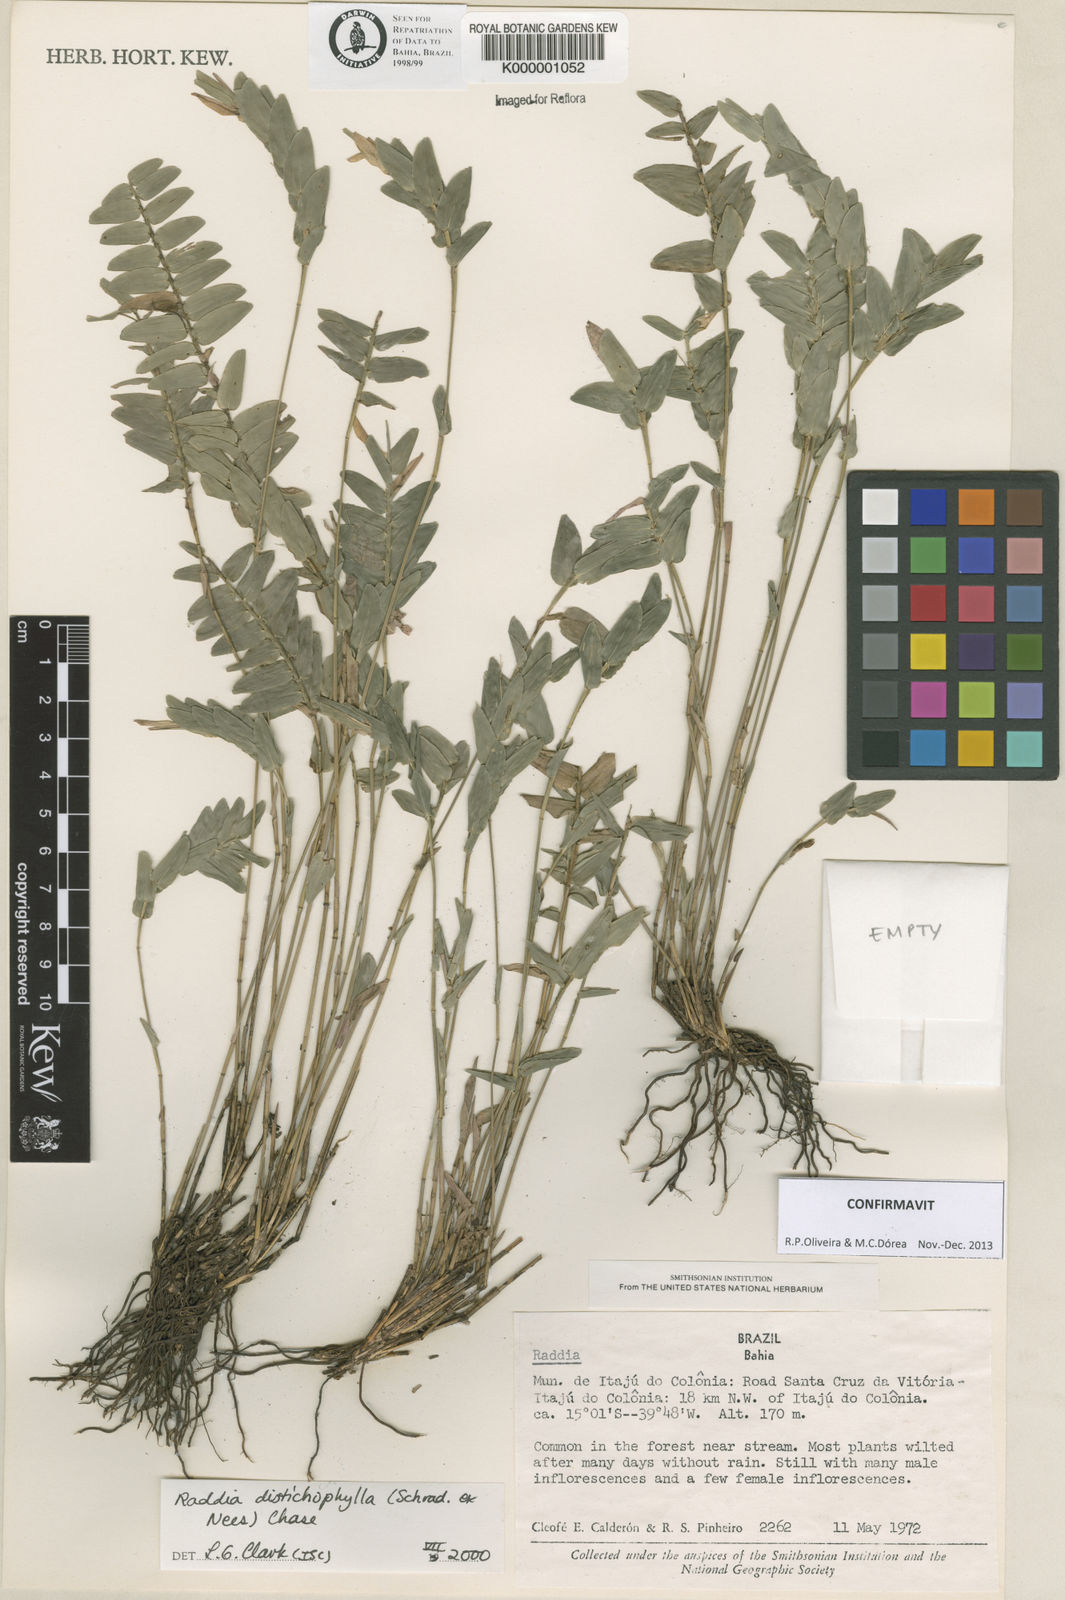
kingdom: Plantae
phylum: Tracheophyta
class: Liliopsida
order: Poales
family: Poaceae
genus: Raddia
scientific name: Raddia distichophylla
